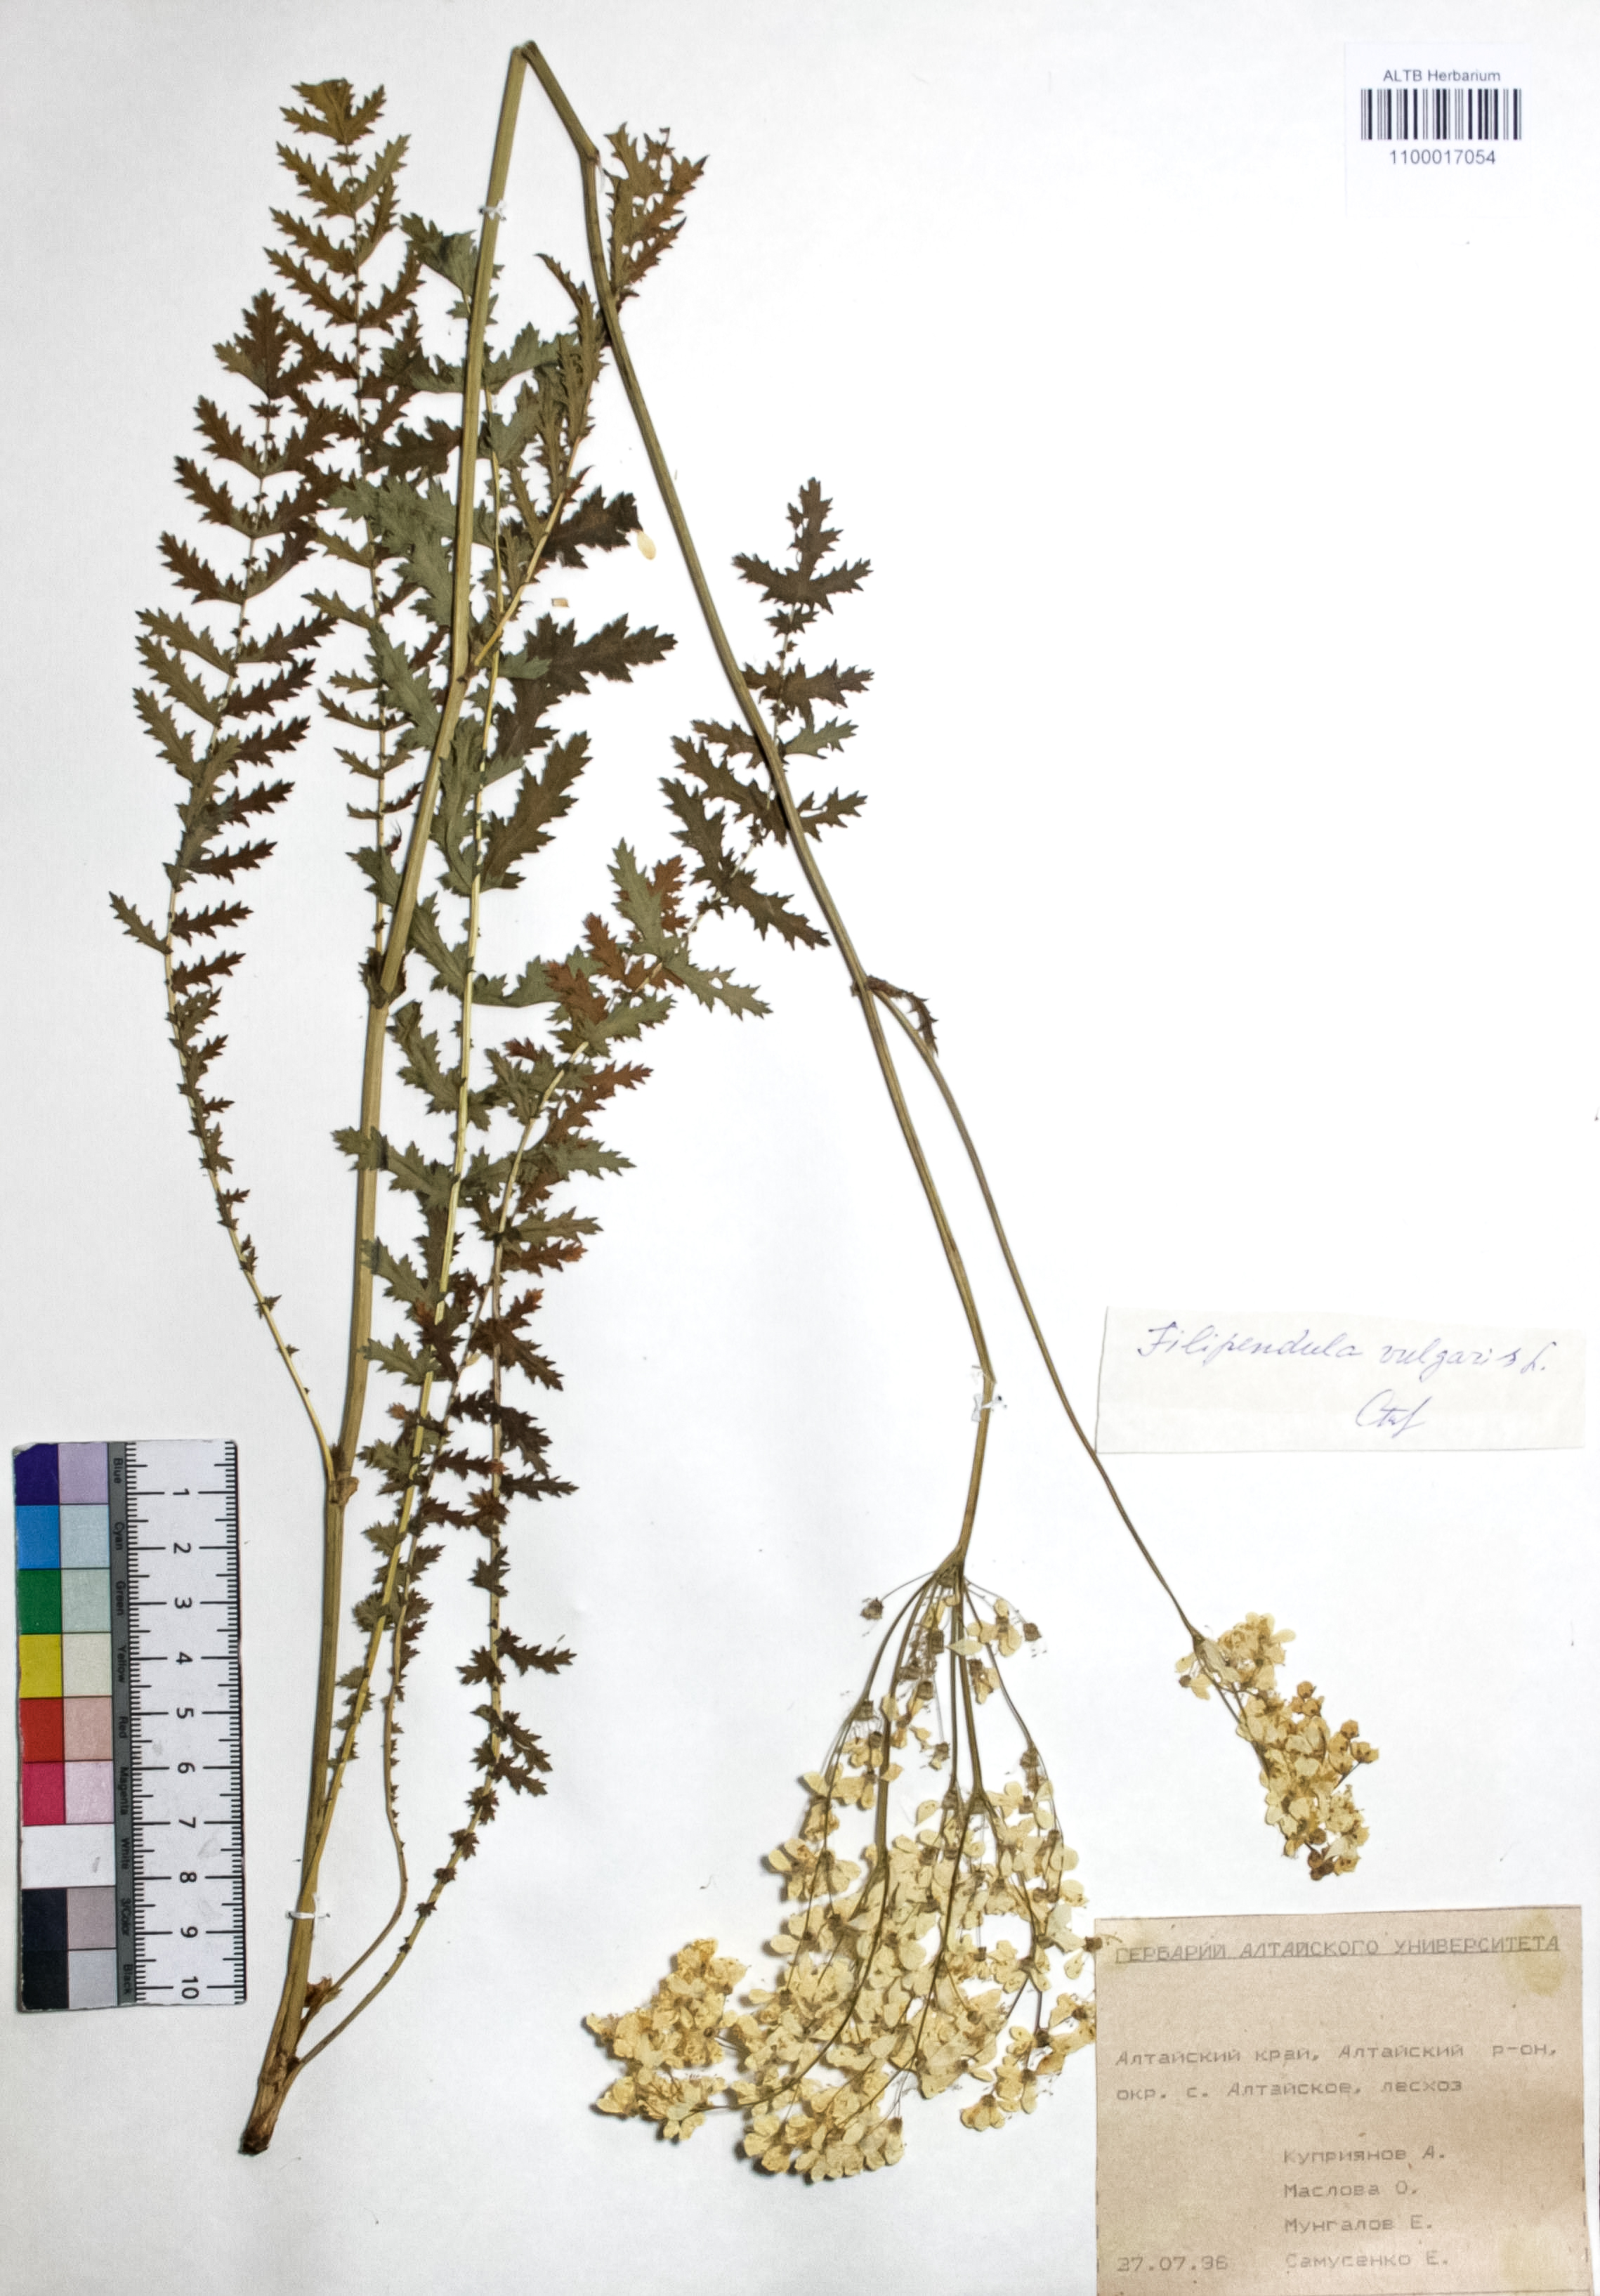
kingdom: Plantae
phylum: Tracheophyta
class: Magnoliopsida
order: Rosales
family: Rosaceae
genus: Filipendula
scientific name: Filipendula vulgaris
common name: Dropwort
